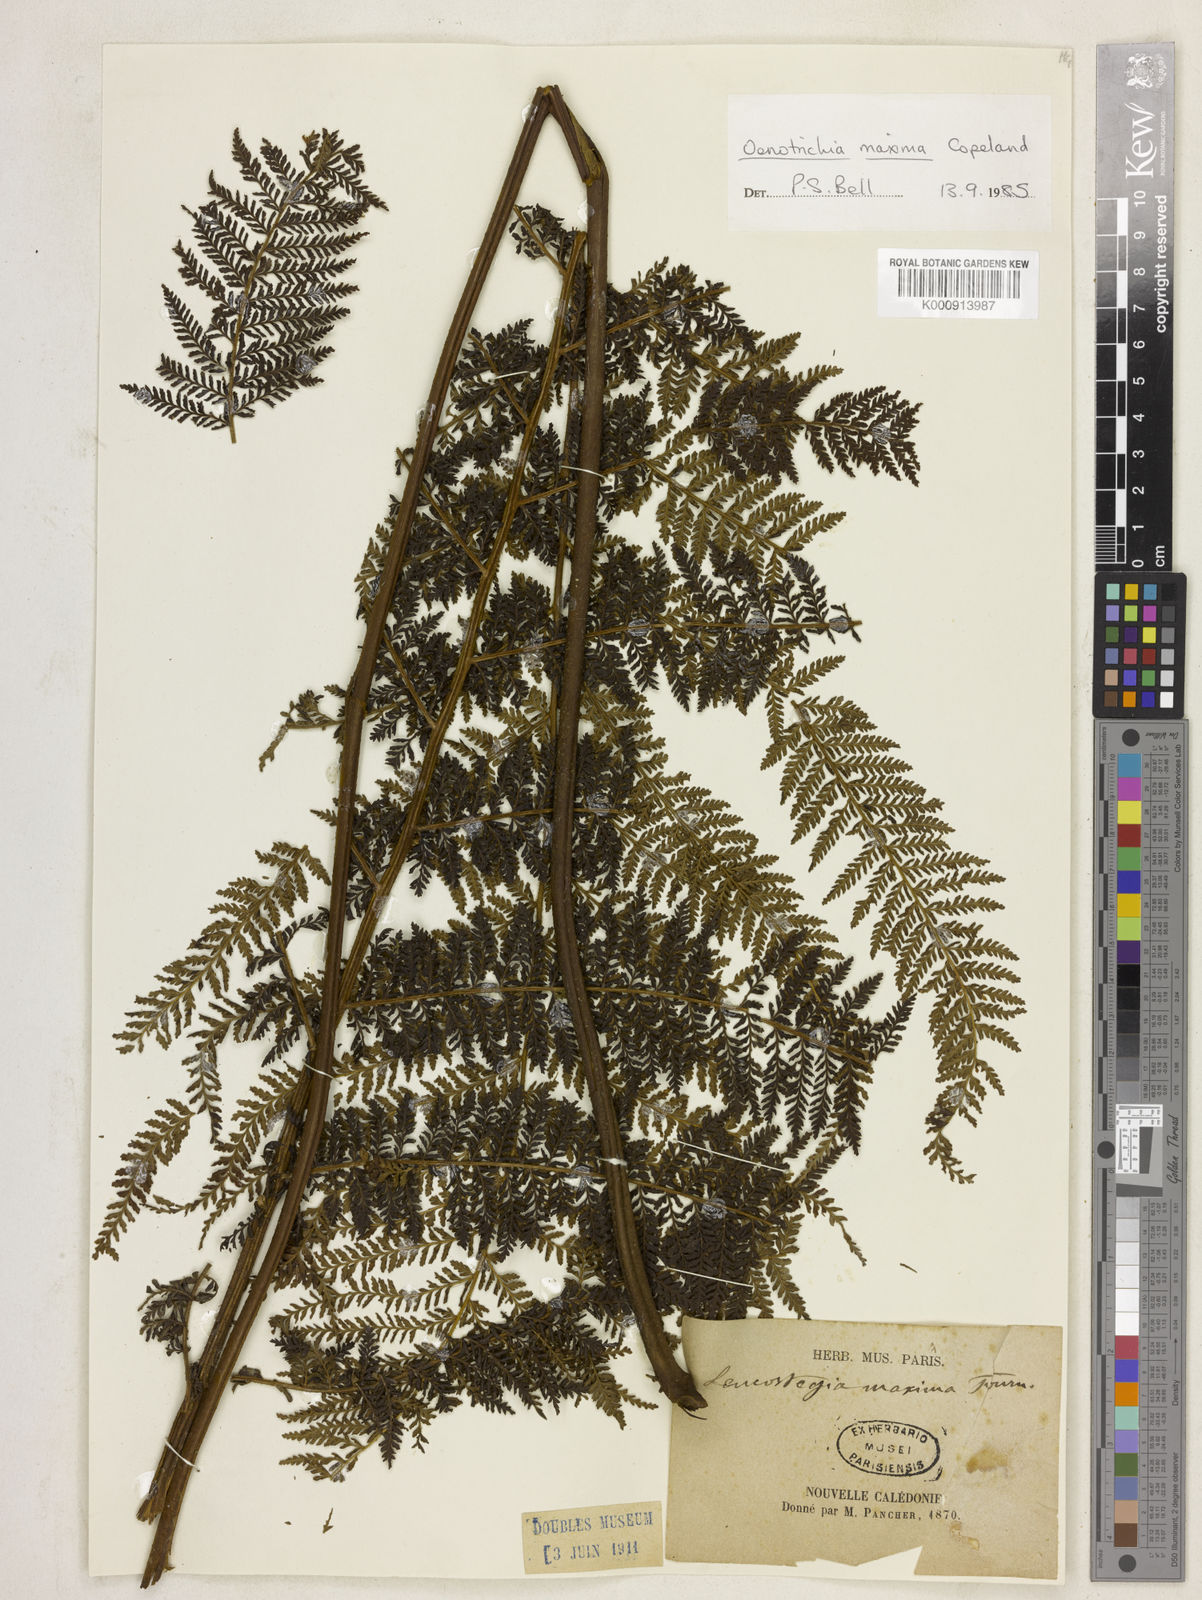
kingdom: Plantae
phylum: Tracheophyta
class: Polypodiopsida
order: Polypodiales
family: Dennstaedtiaceae
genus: Dennstaedtia
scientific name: Dennstaedtia maxima
